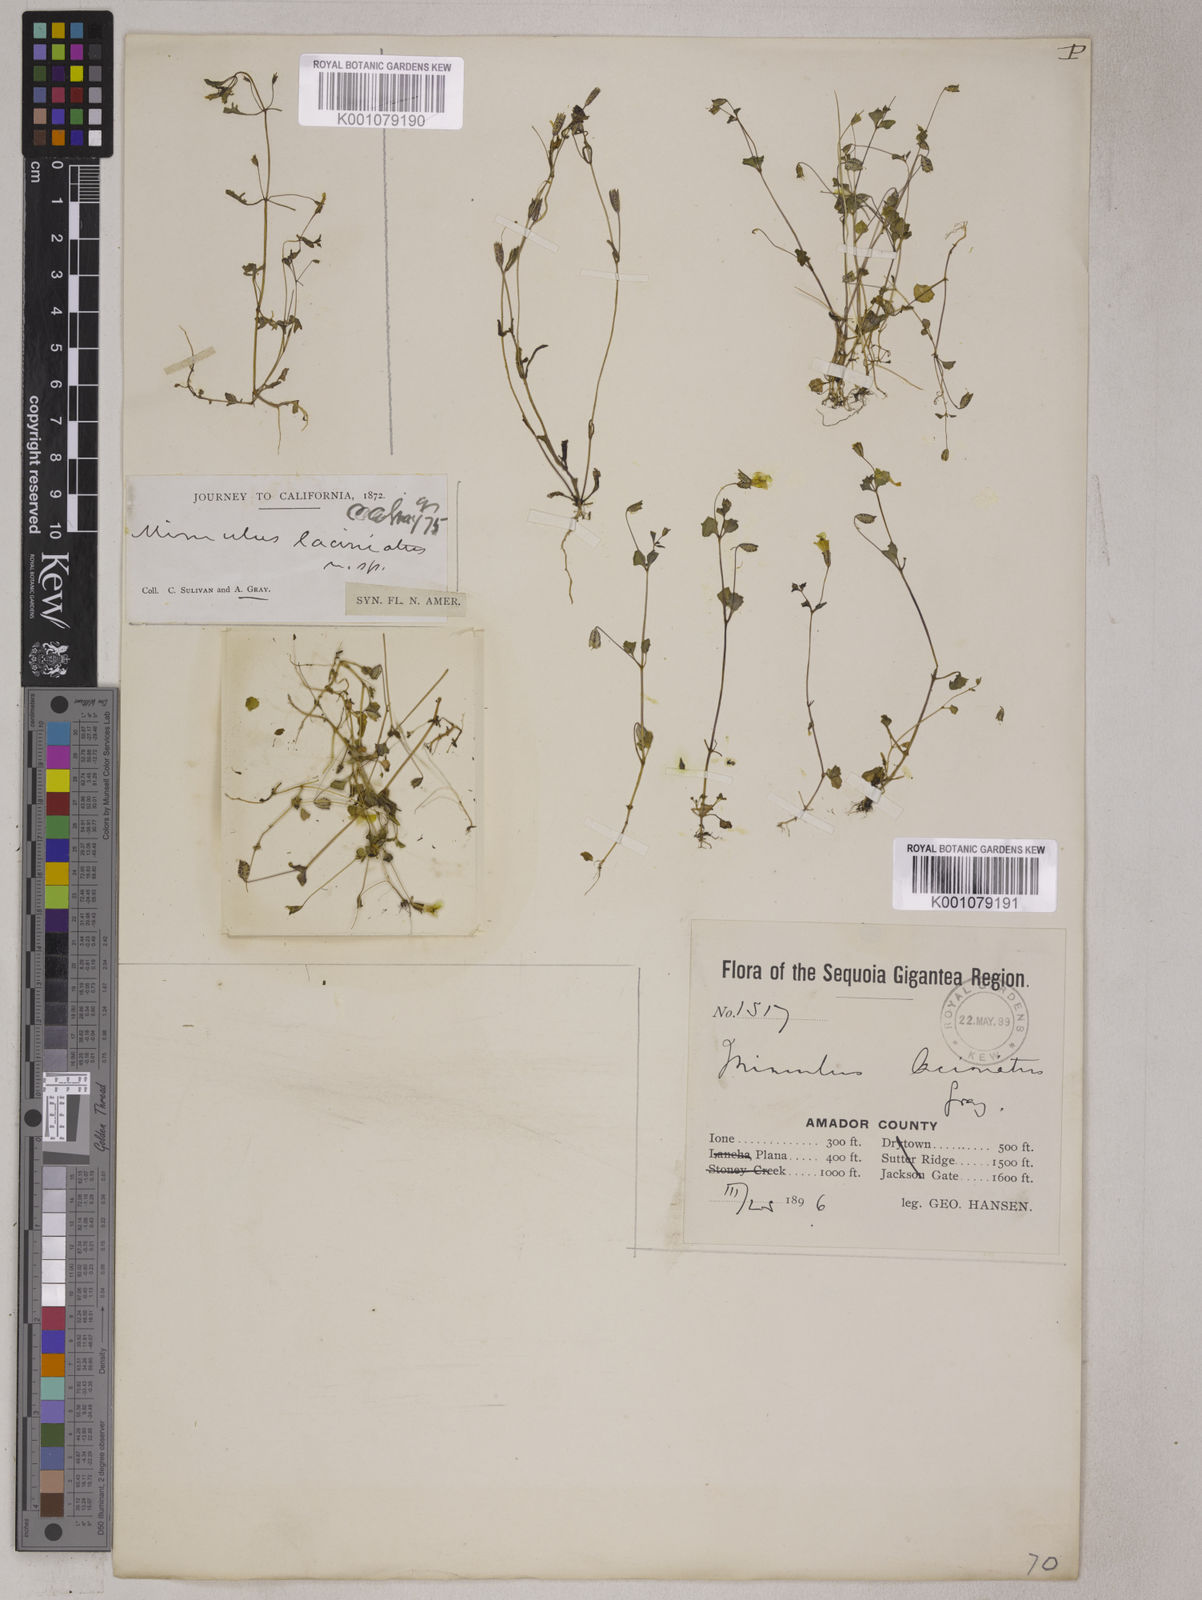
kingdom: Plantae
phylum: Tracheophyta
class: Magnoliopsida
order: Lamiales
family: Phrymaceae
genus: Erythranthe
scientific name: Erythranthe laciniata
